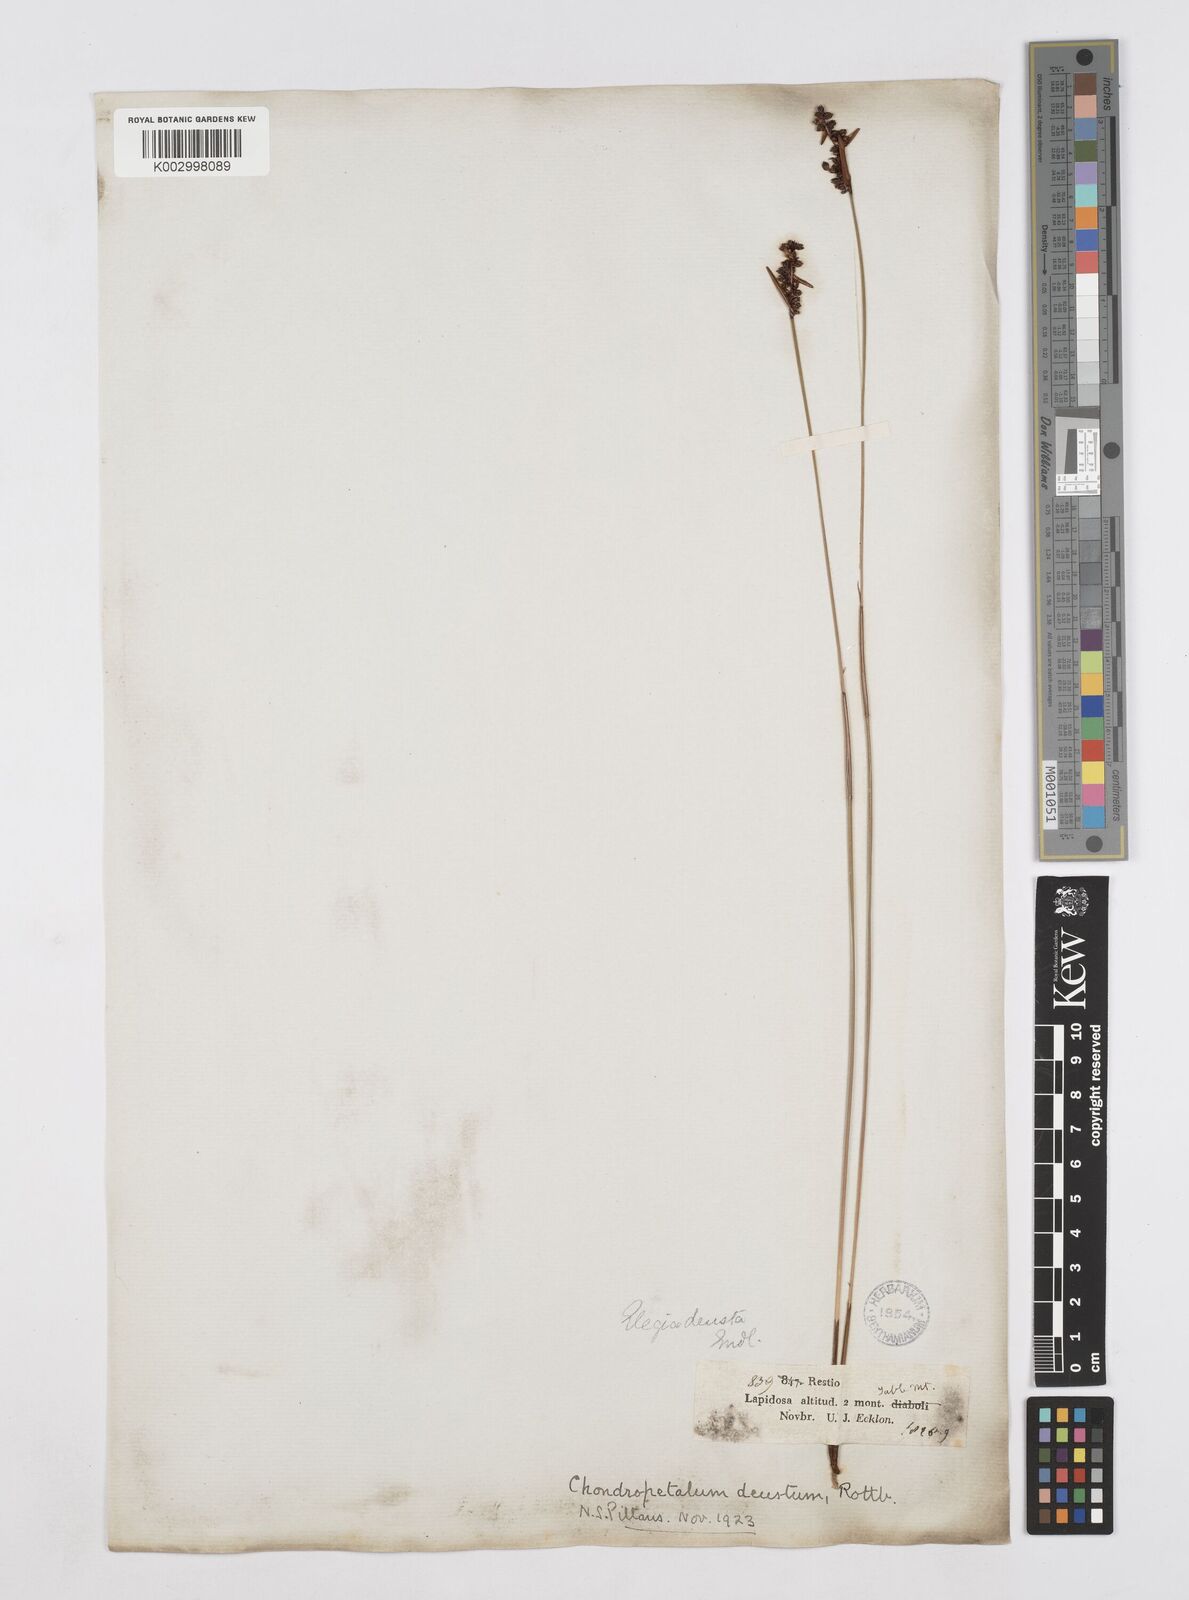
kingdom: Plantae
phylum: Tracheophyta
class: Liliopsida
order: Poales
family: Restionaceae
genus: Elegia
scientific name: Elegia deusta
